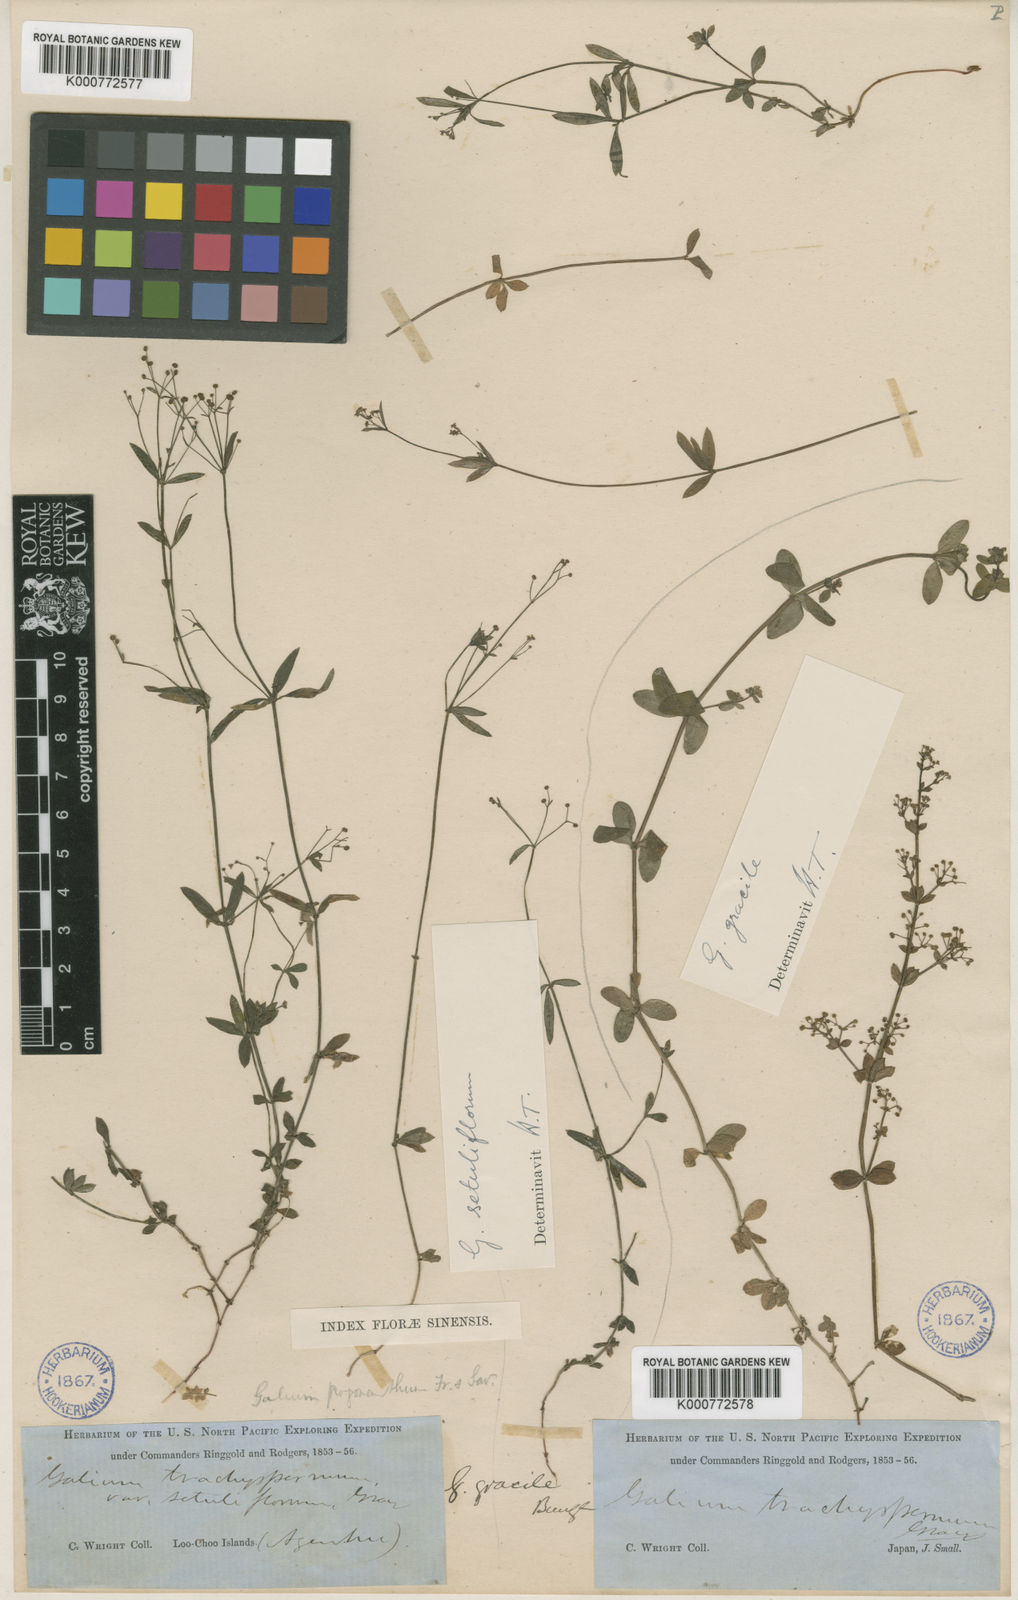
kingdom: Plantae
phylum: Tracheophyta
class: Magnoliopsida
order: Gentianales
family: Rubiaceae
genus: Galium
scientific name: Galium bungei
